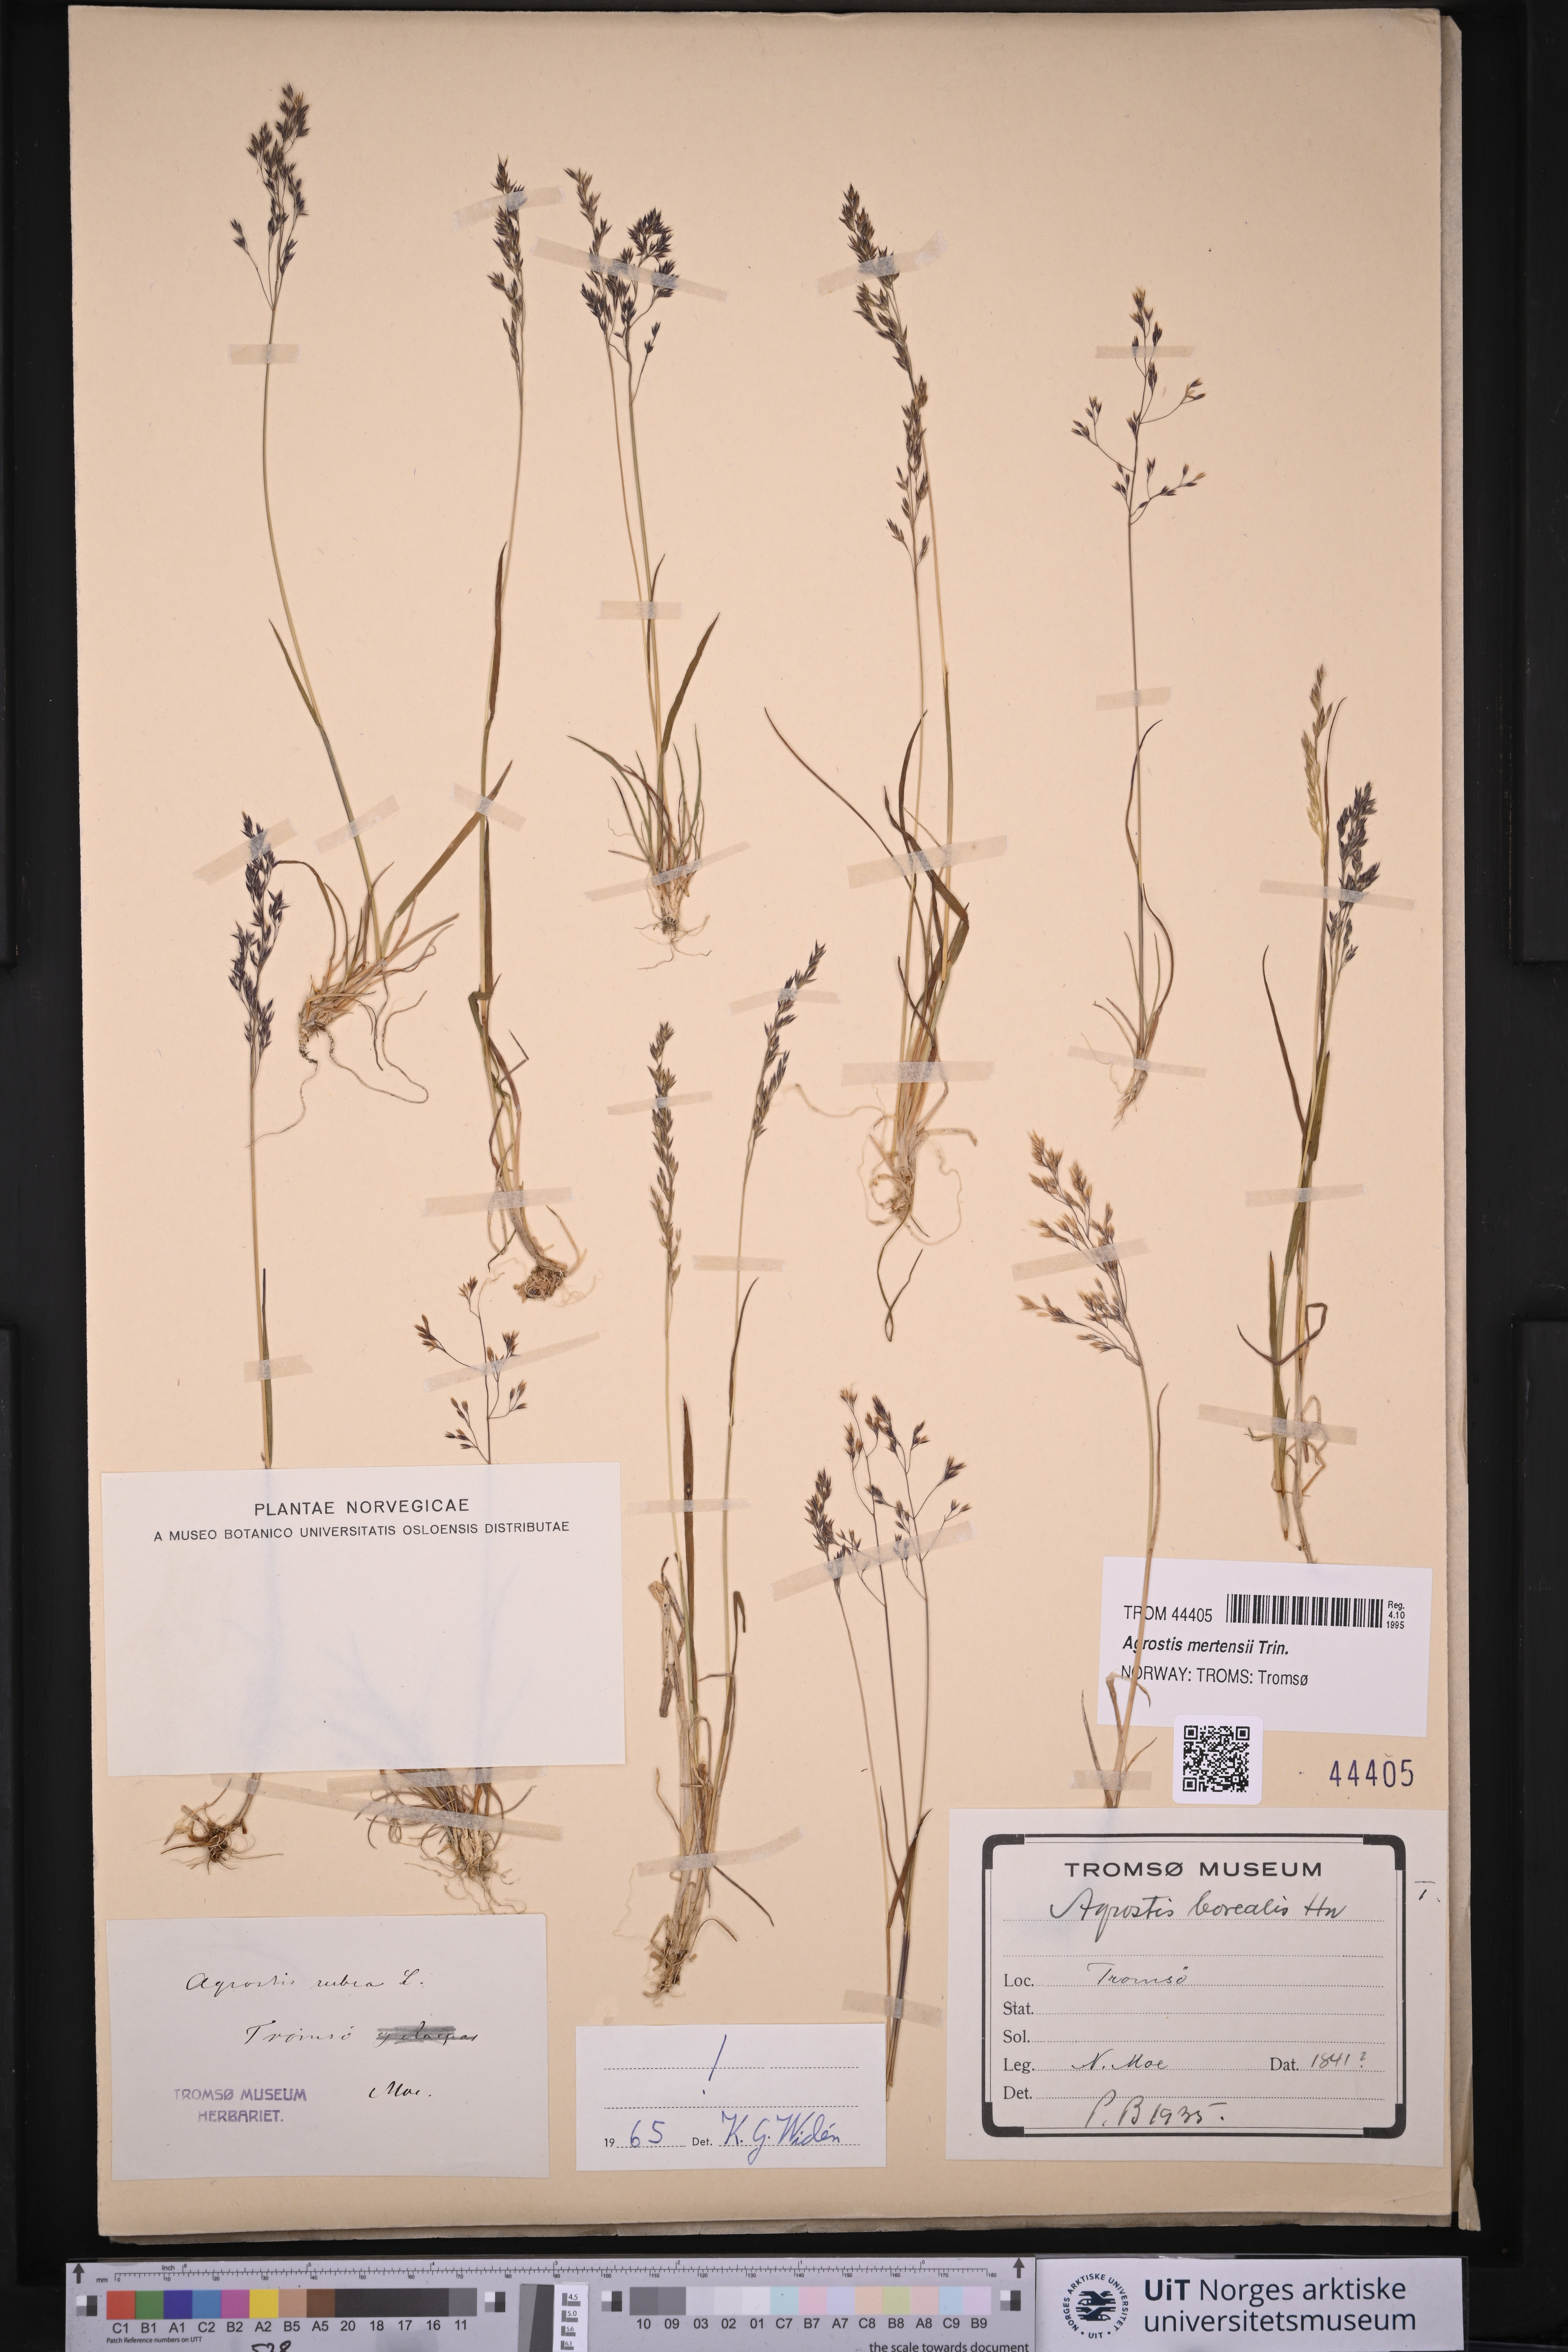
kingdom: Plantae
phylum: Tracheophyta
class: Liliopsida
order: Poales
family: Poaceae
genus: Agrostis
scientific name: Agrostis mertensii
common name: Northern bent
